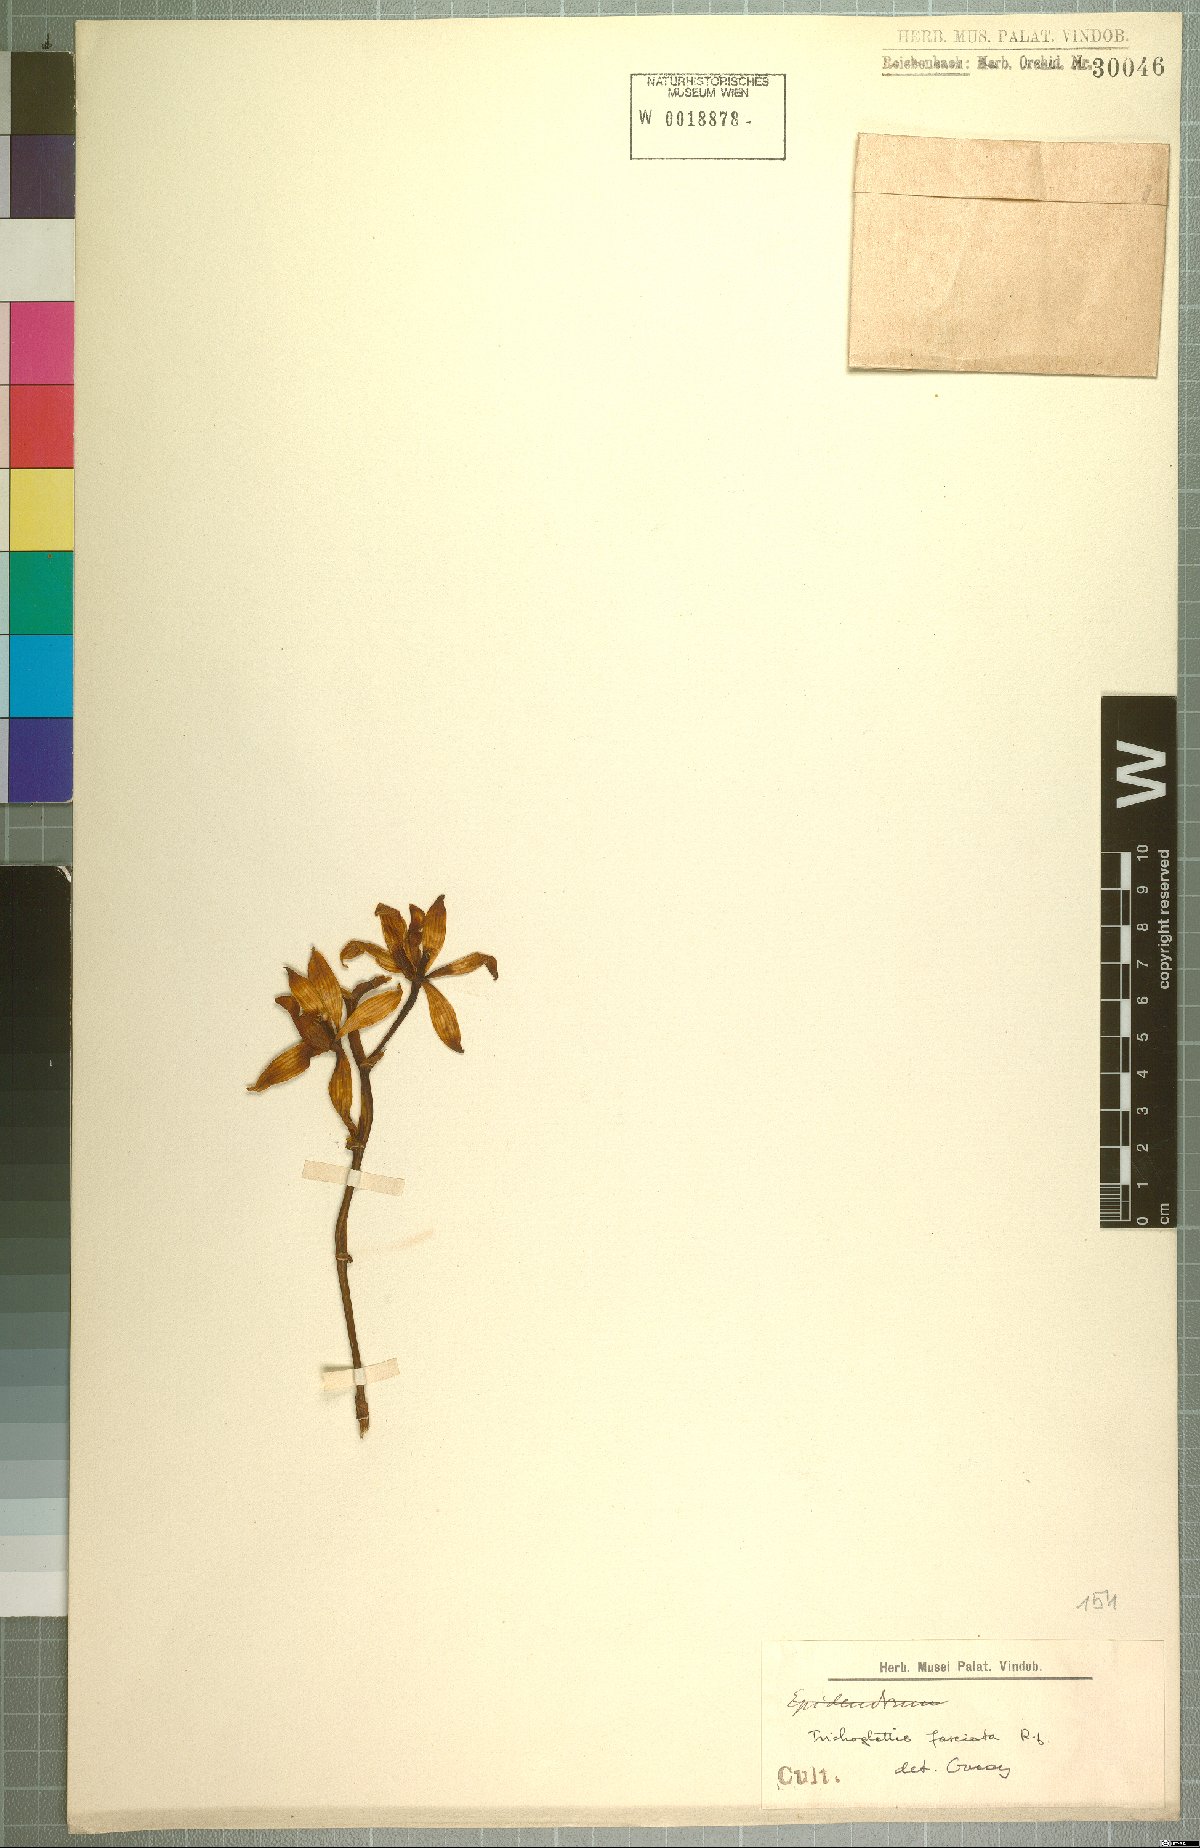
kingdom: Plantae
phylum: Tracheophyta
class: Liliopsida
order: Asparagales
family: Orchidaceae
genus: Trichoglottis
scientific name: Trichoglottis fasciata
